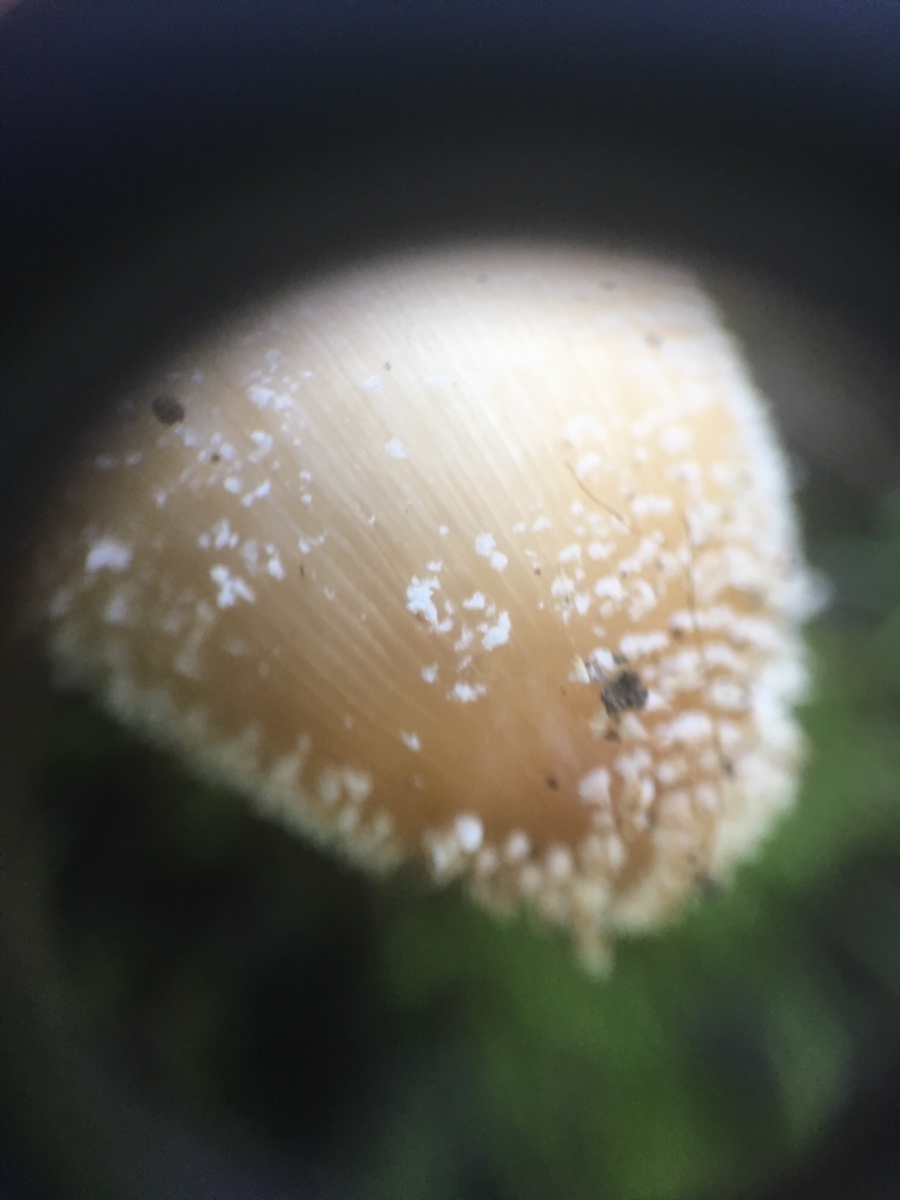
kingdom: Fungi
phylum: Basidiomycota
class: Agaricomycetes
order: Agaricales
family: Psathyrellaceae
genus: Coprinellus
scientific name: Coprinellus
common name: blækhat
